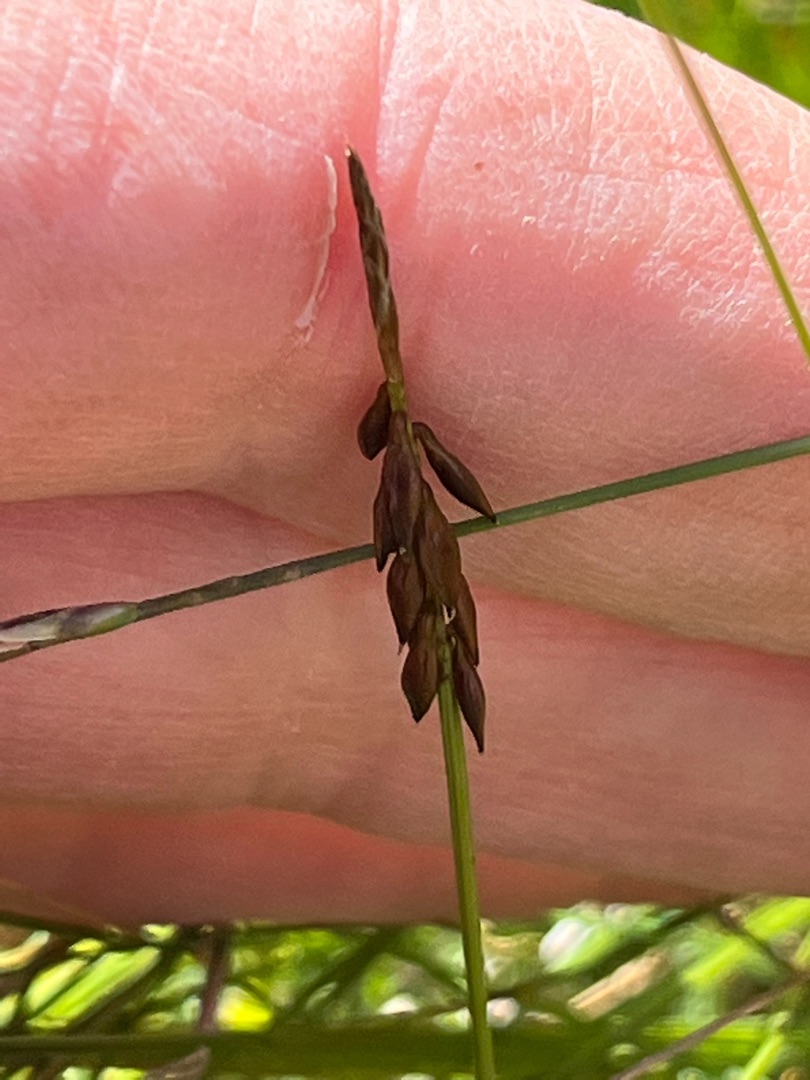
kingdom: Plantae
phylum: Tracheophyta
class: Liliopsida
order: Poales
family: Cyperaceae
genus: Carex
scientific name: Carex pulicaris
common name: Loppe-star
